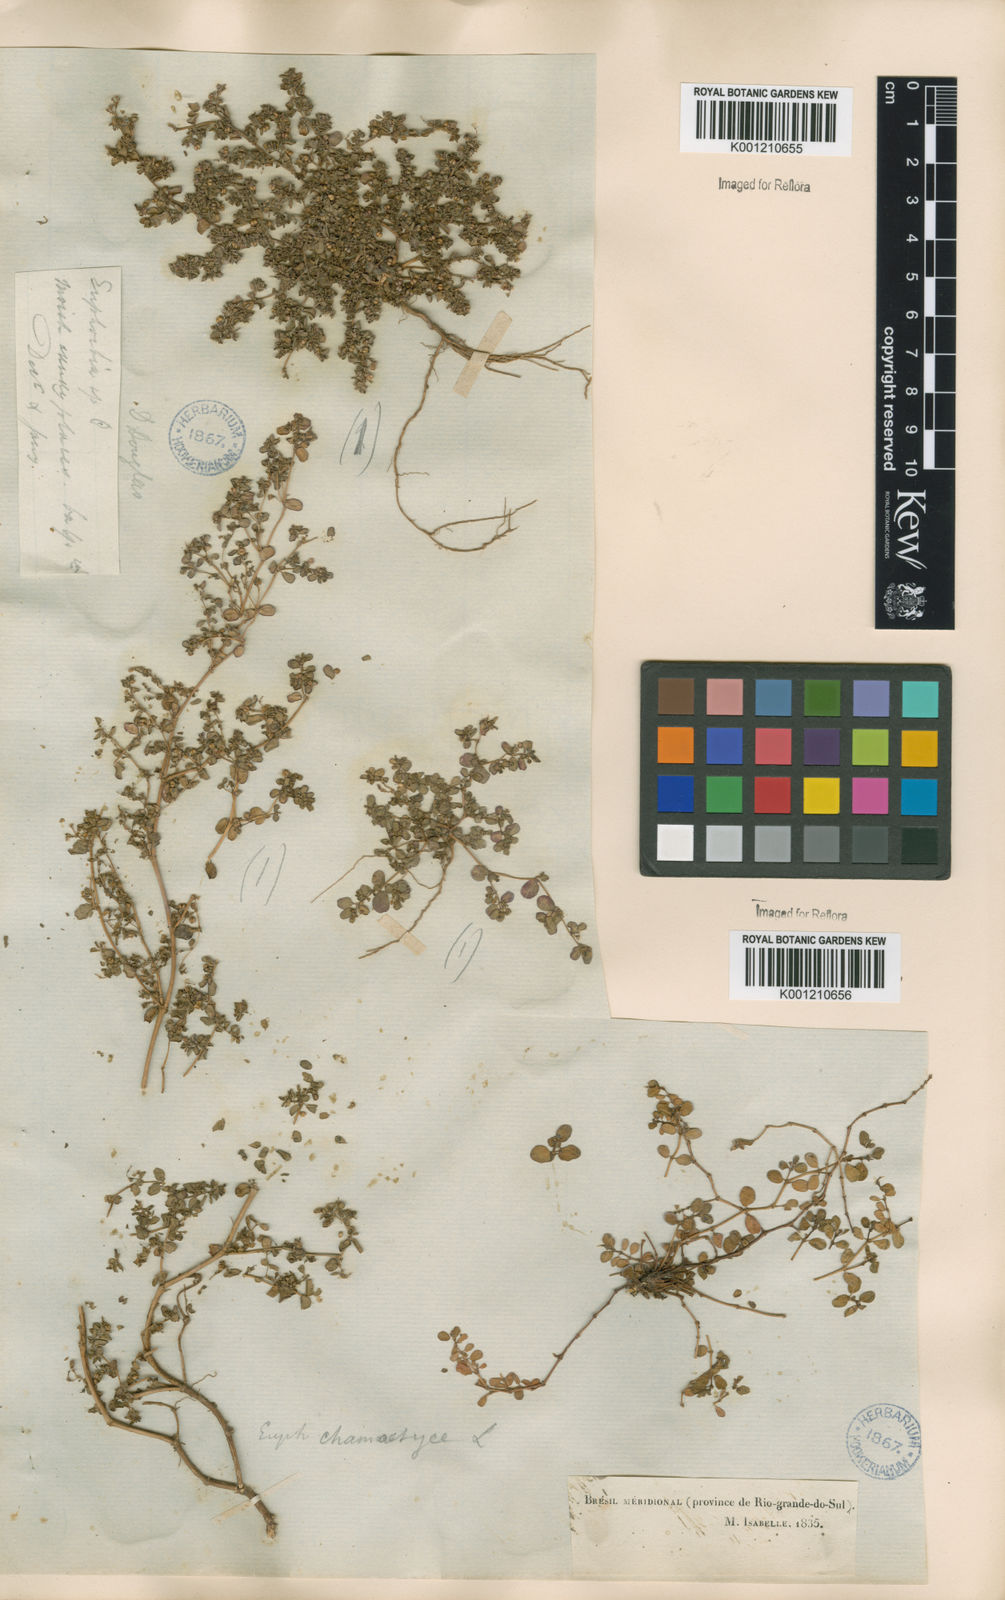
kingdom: Plantae
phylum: Tracheophyta
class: Magnoliopsida
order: Malpighiales
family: Euphorbiaceae
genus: Euphorbia
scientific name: Euphorbia prostrata
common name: Prostrate sandmat
